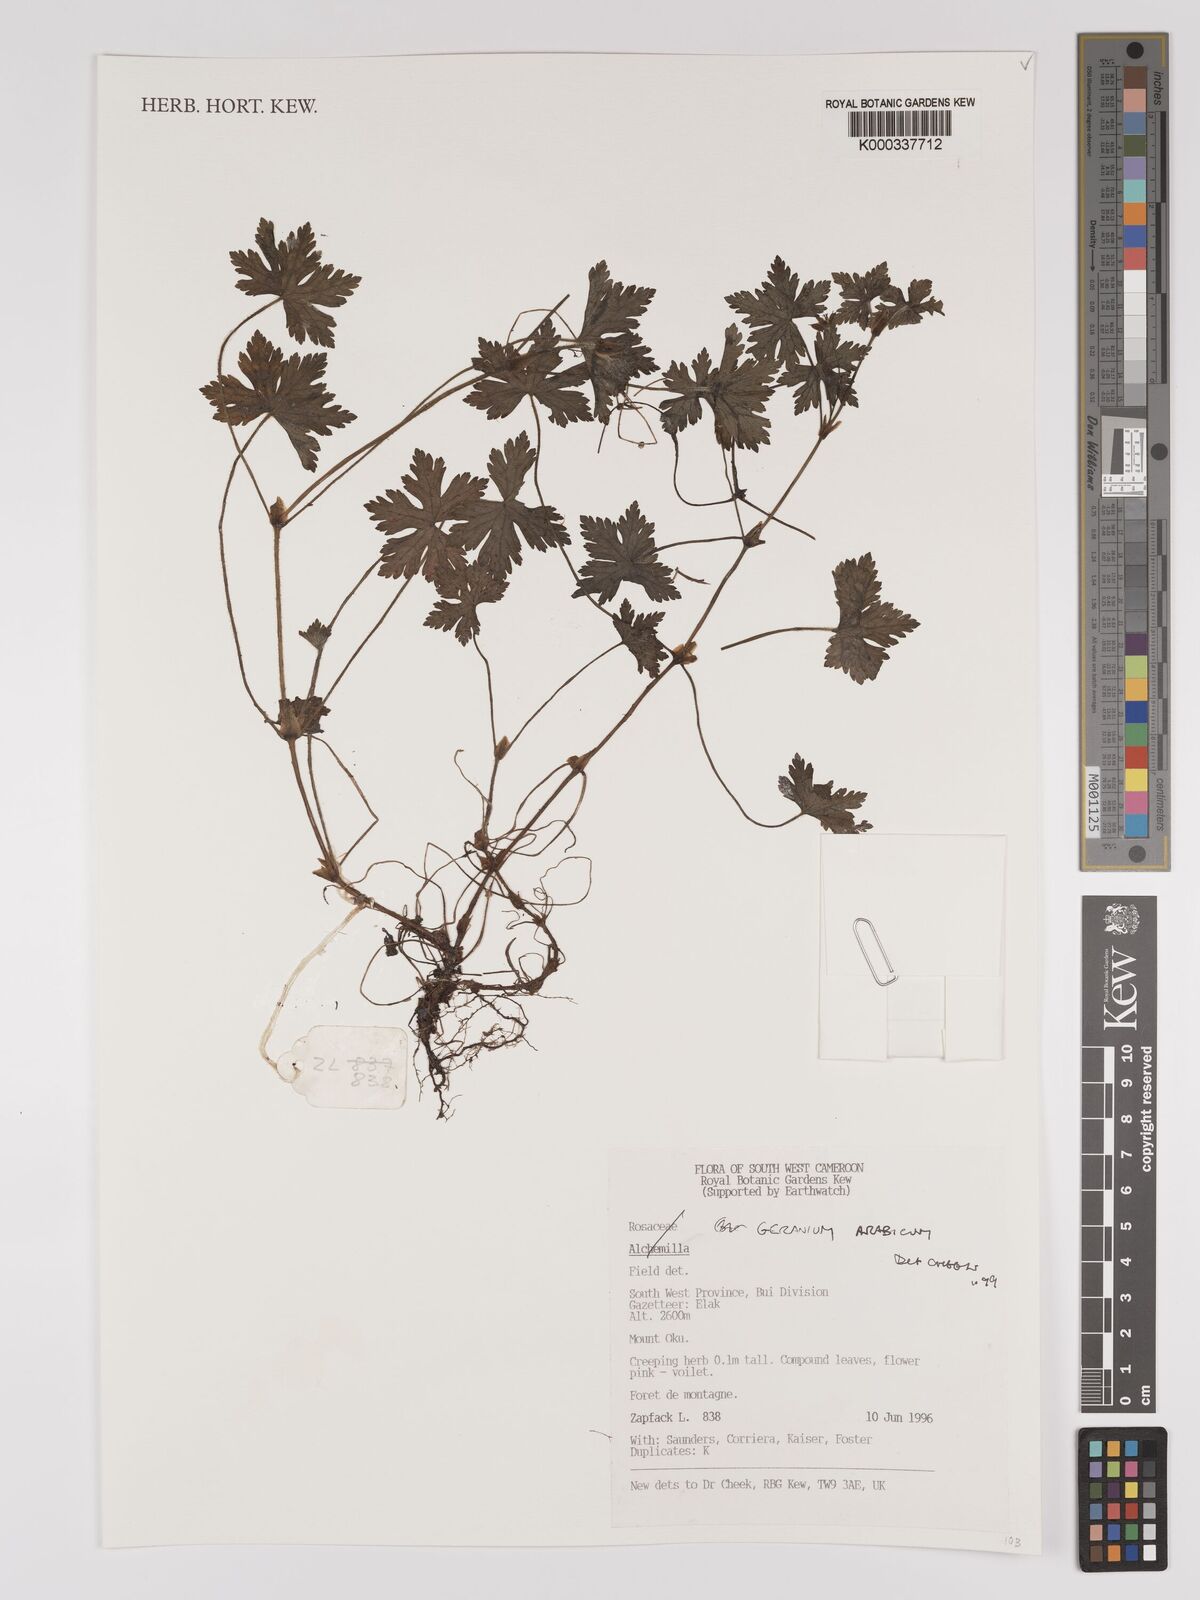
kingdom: Plantae
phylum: Tracheophyta
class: Magnoliopsida
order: Geraniales
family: Geraniaceae
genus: Geranium
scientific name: Geranium arabicum
